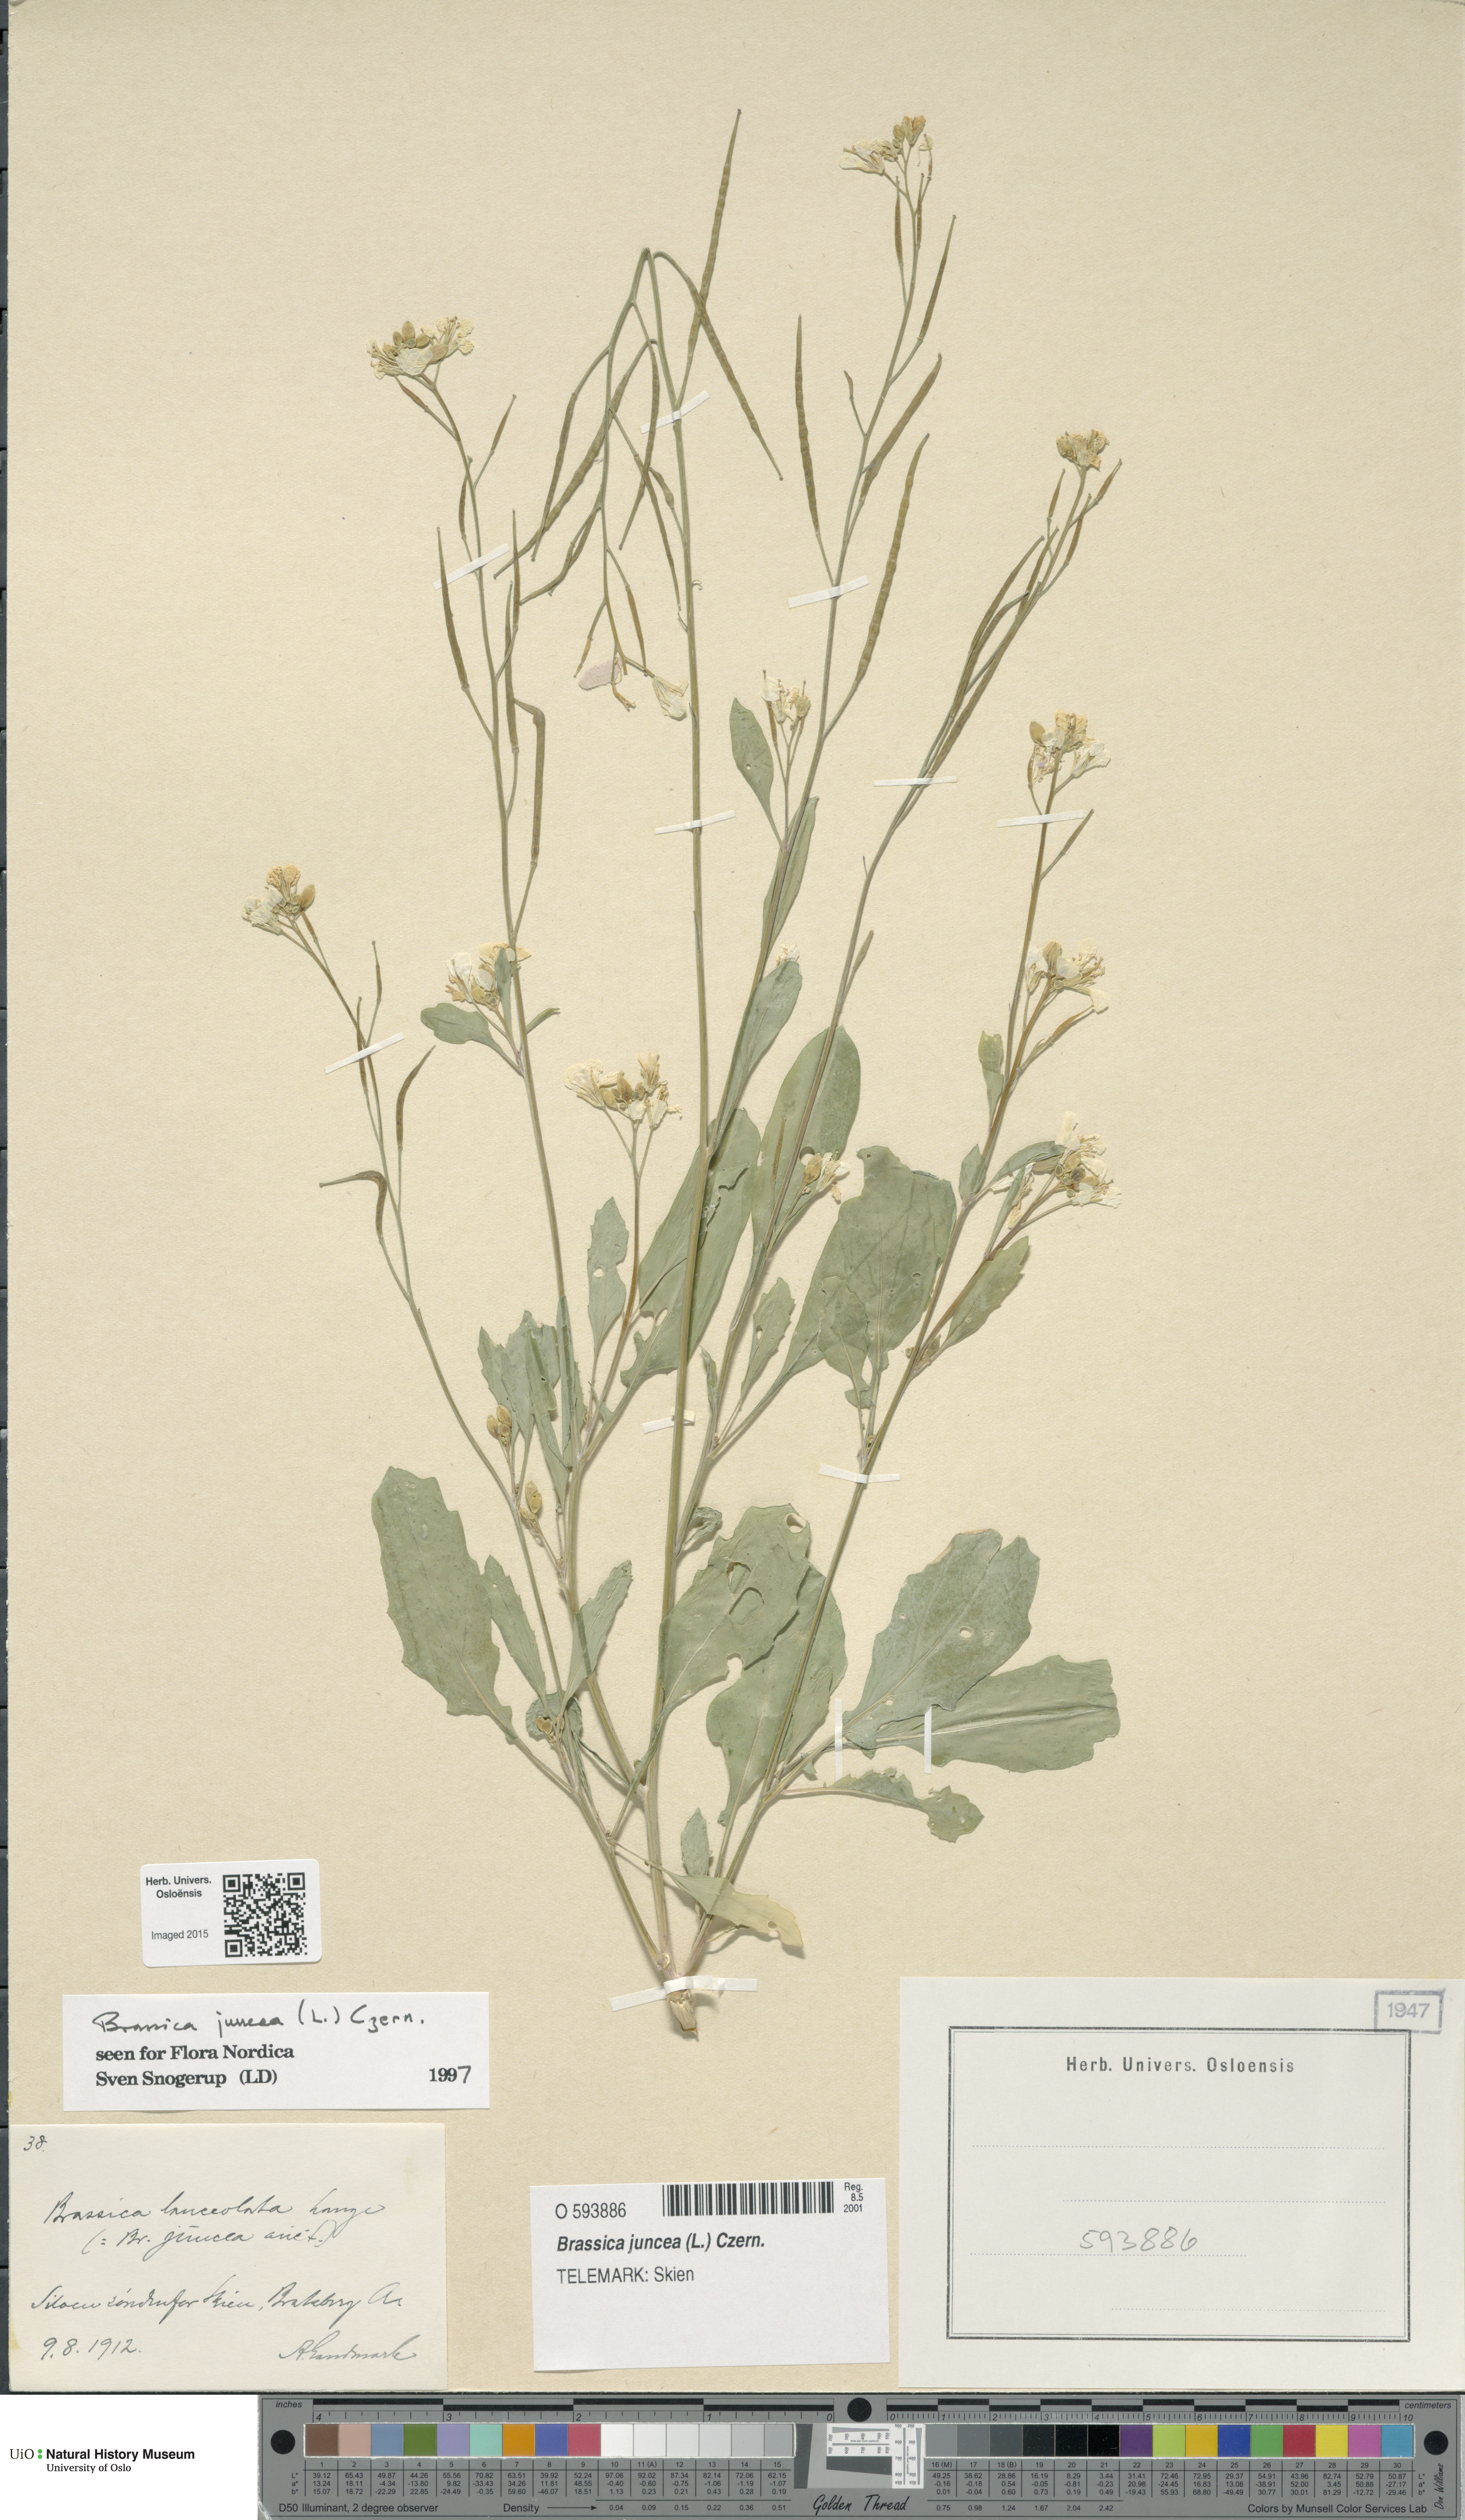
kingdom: Plantae
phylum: Tracheophyta
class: Magnoliopsida
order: Brassicales
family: Brassicaceae
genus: Brassica
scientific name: Brassica juncea
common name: Brown mustard
